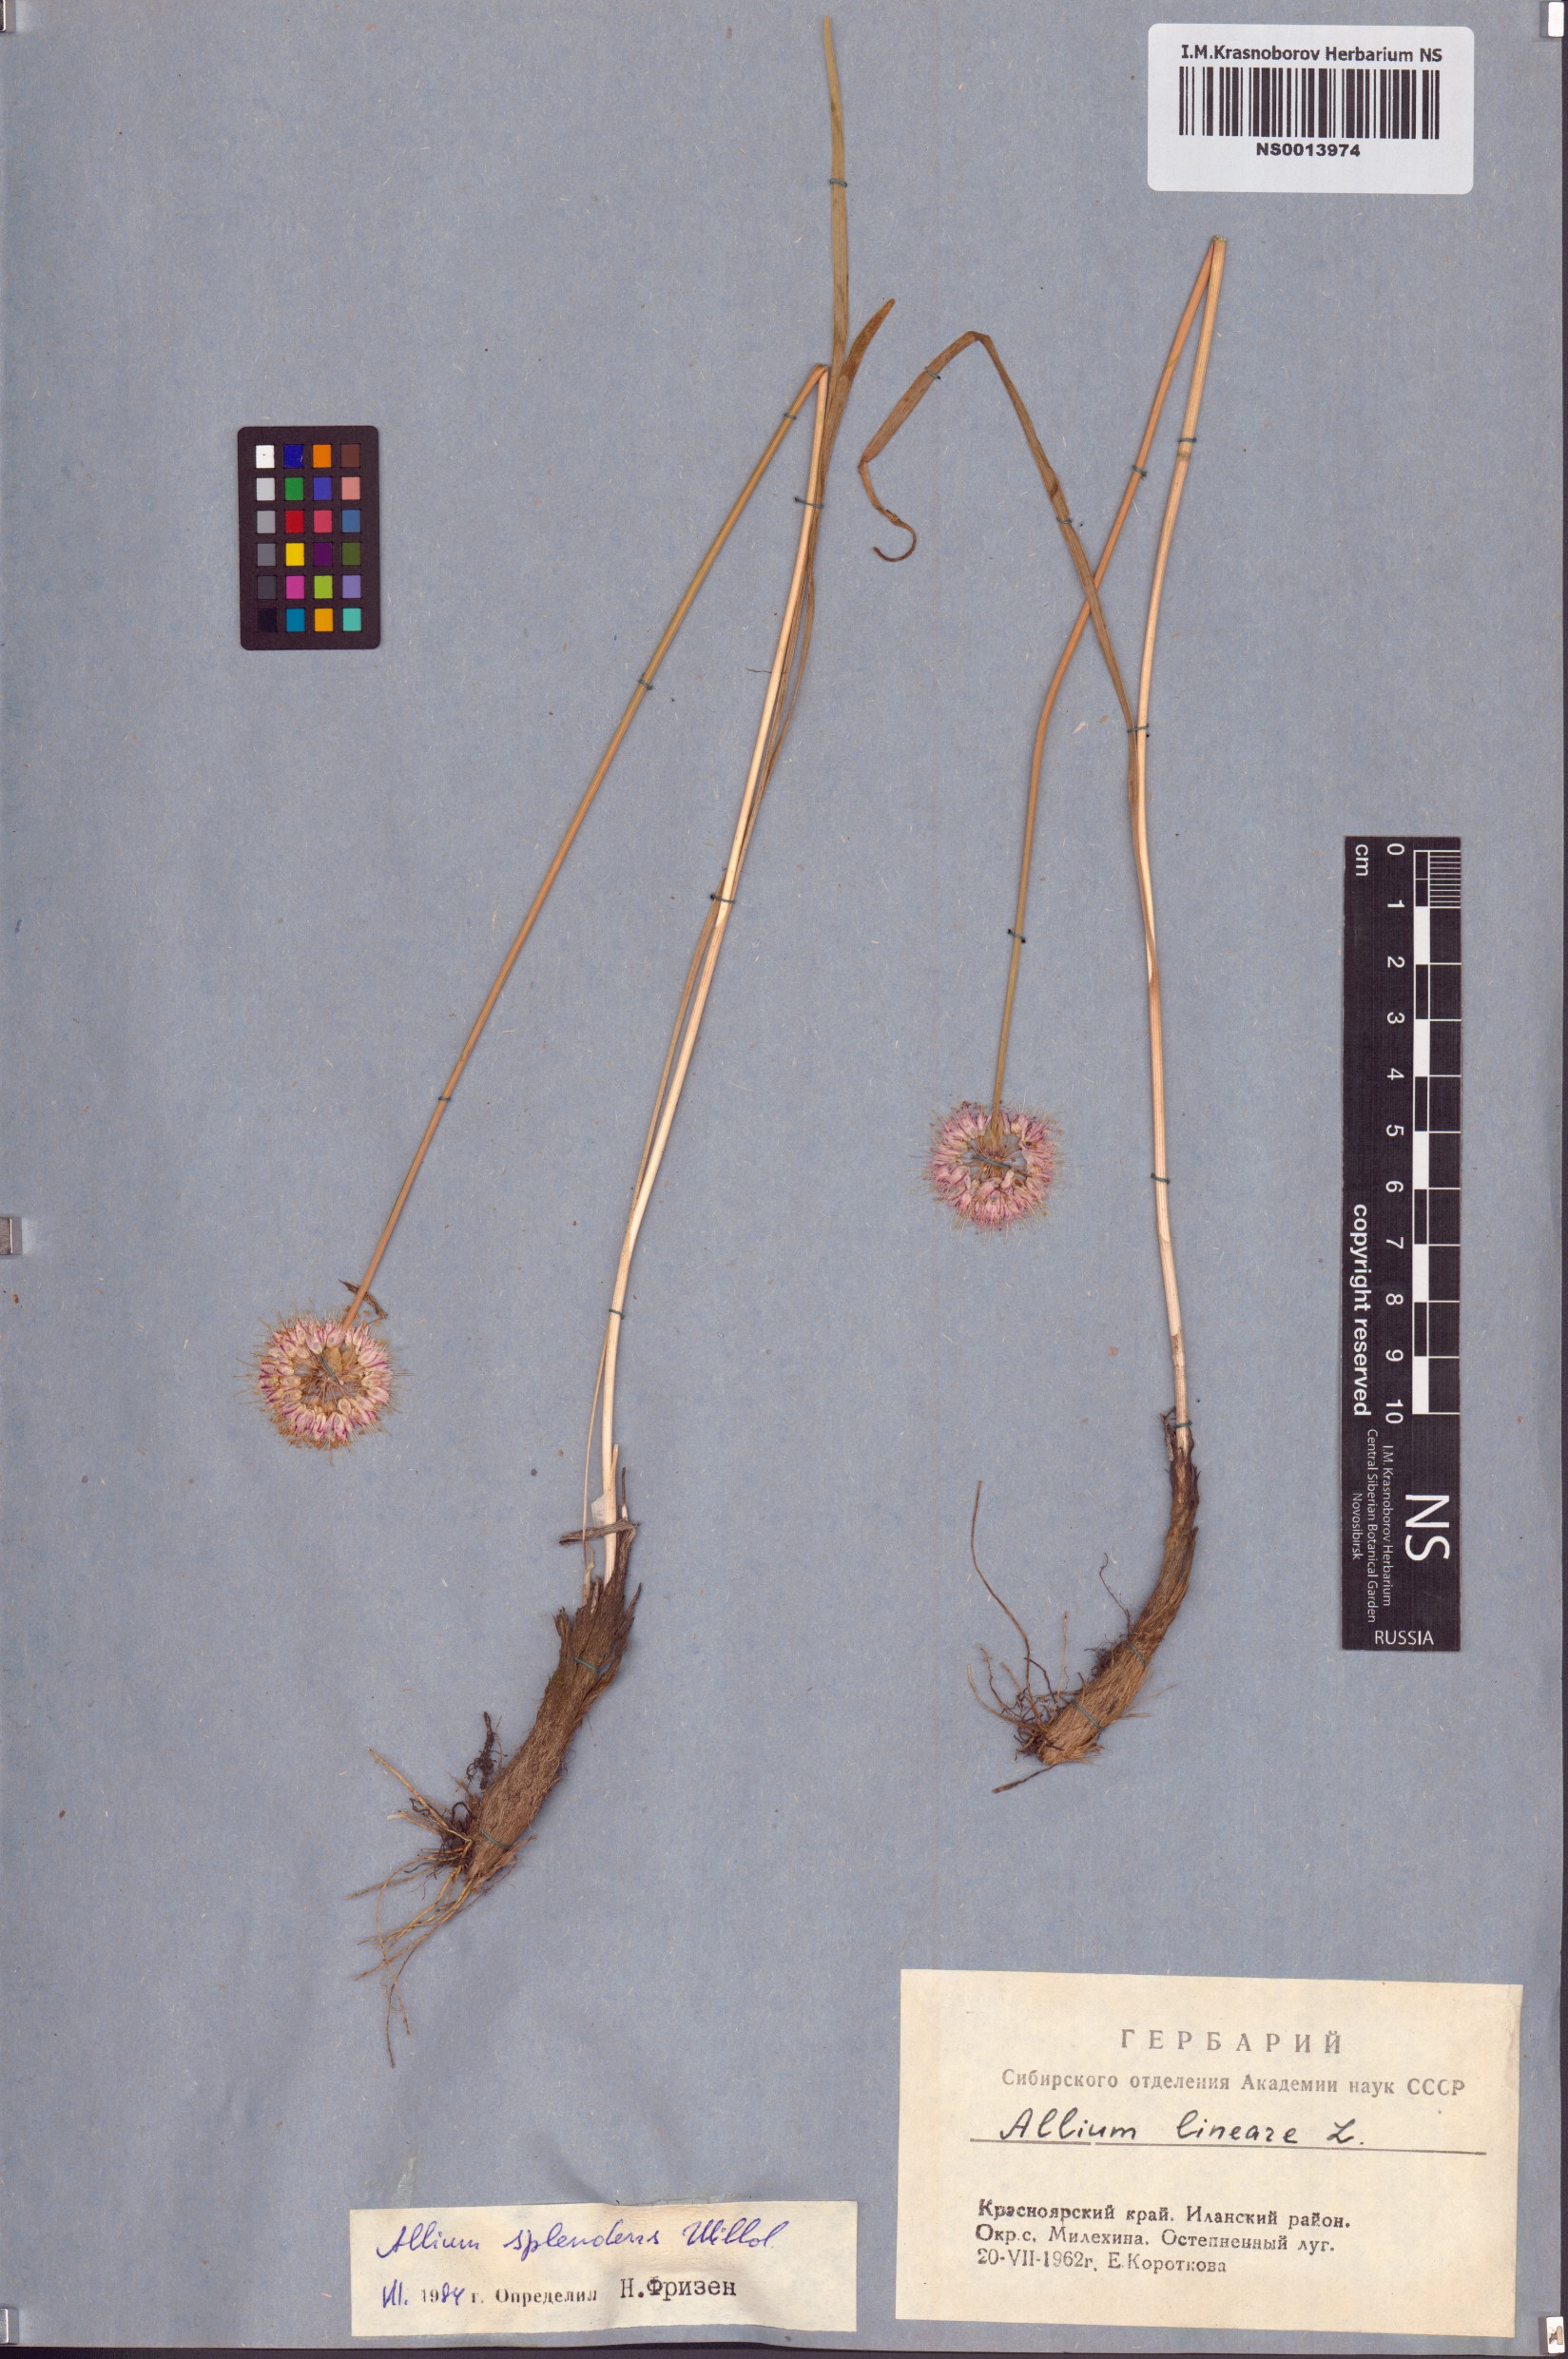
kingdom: Plantae
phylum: Tracheophyta
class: Liliopsida
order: Asparagales
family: Amaryllidaceae
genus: Allium
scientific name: Allium splendens
